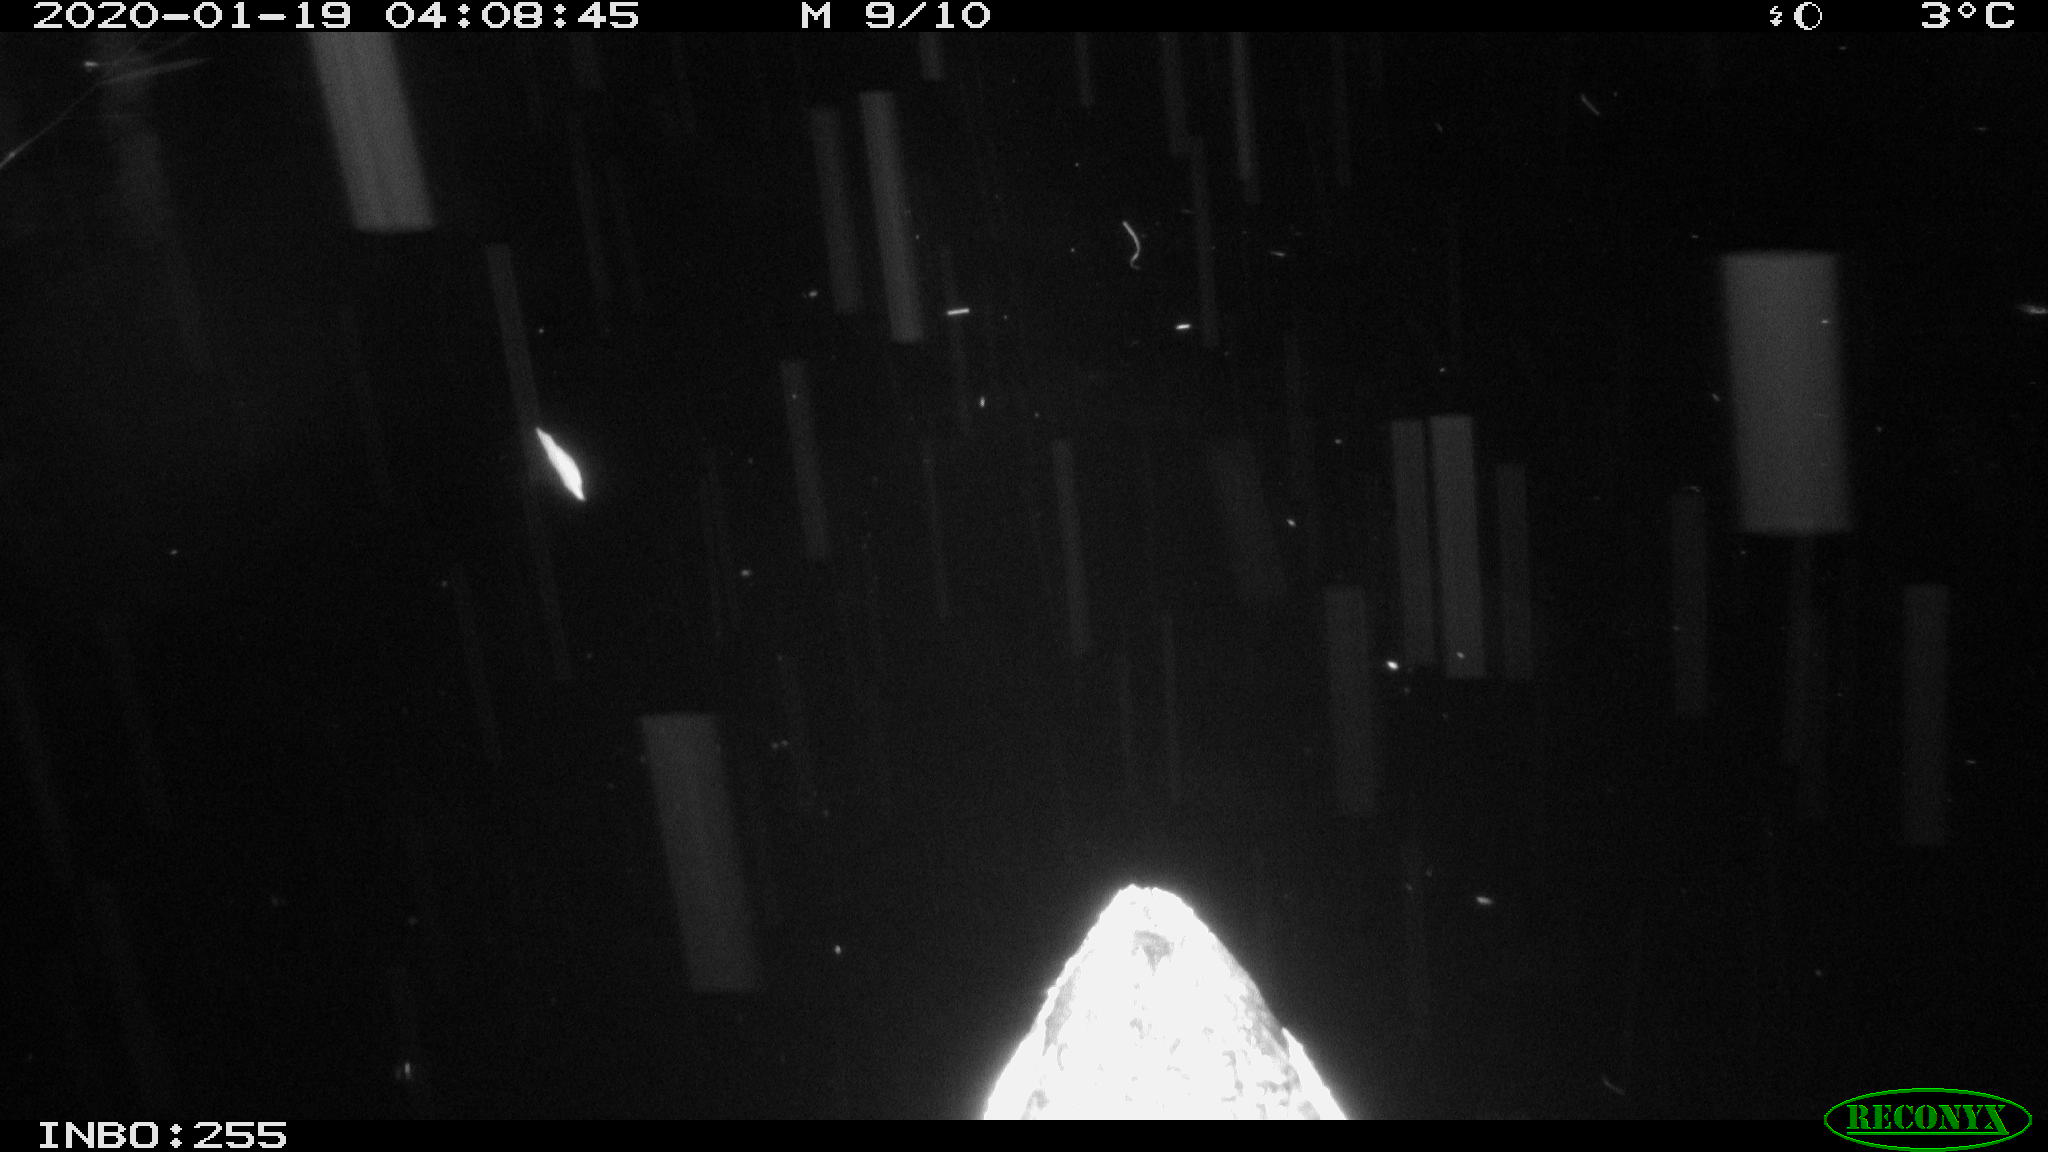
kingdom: Animalia
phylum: Chordata
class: Aves
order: Gruiformes
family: Rallidae
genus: Gallinula
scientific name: Gallinula chloropus
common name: Common moorhen
